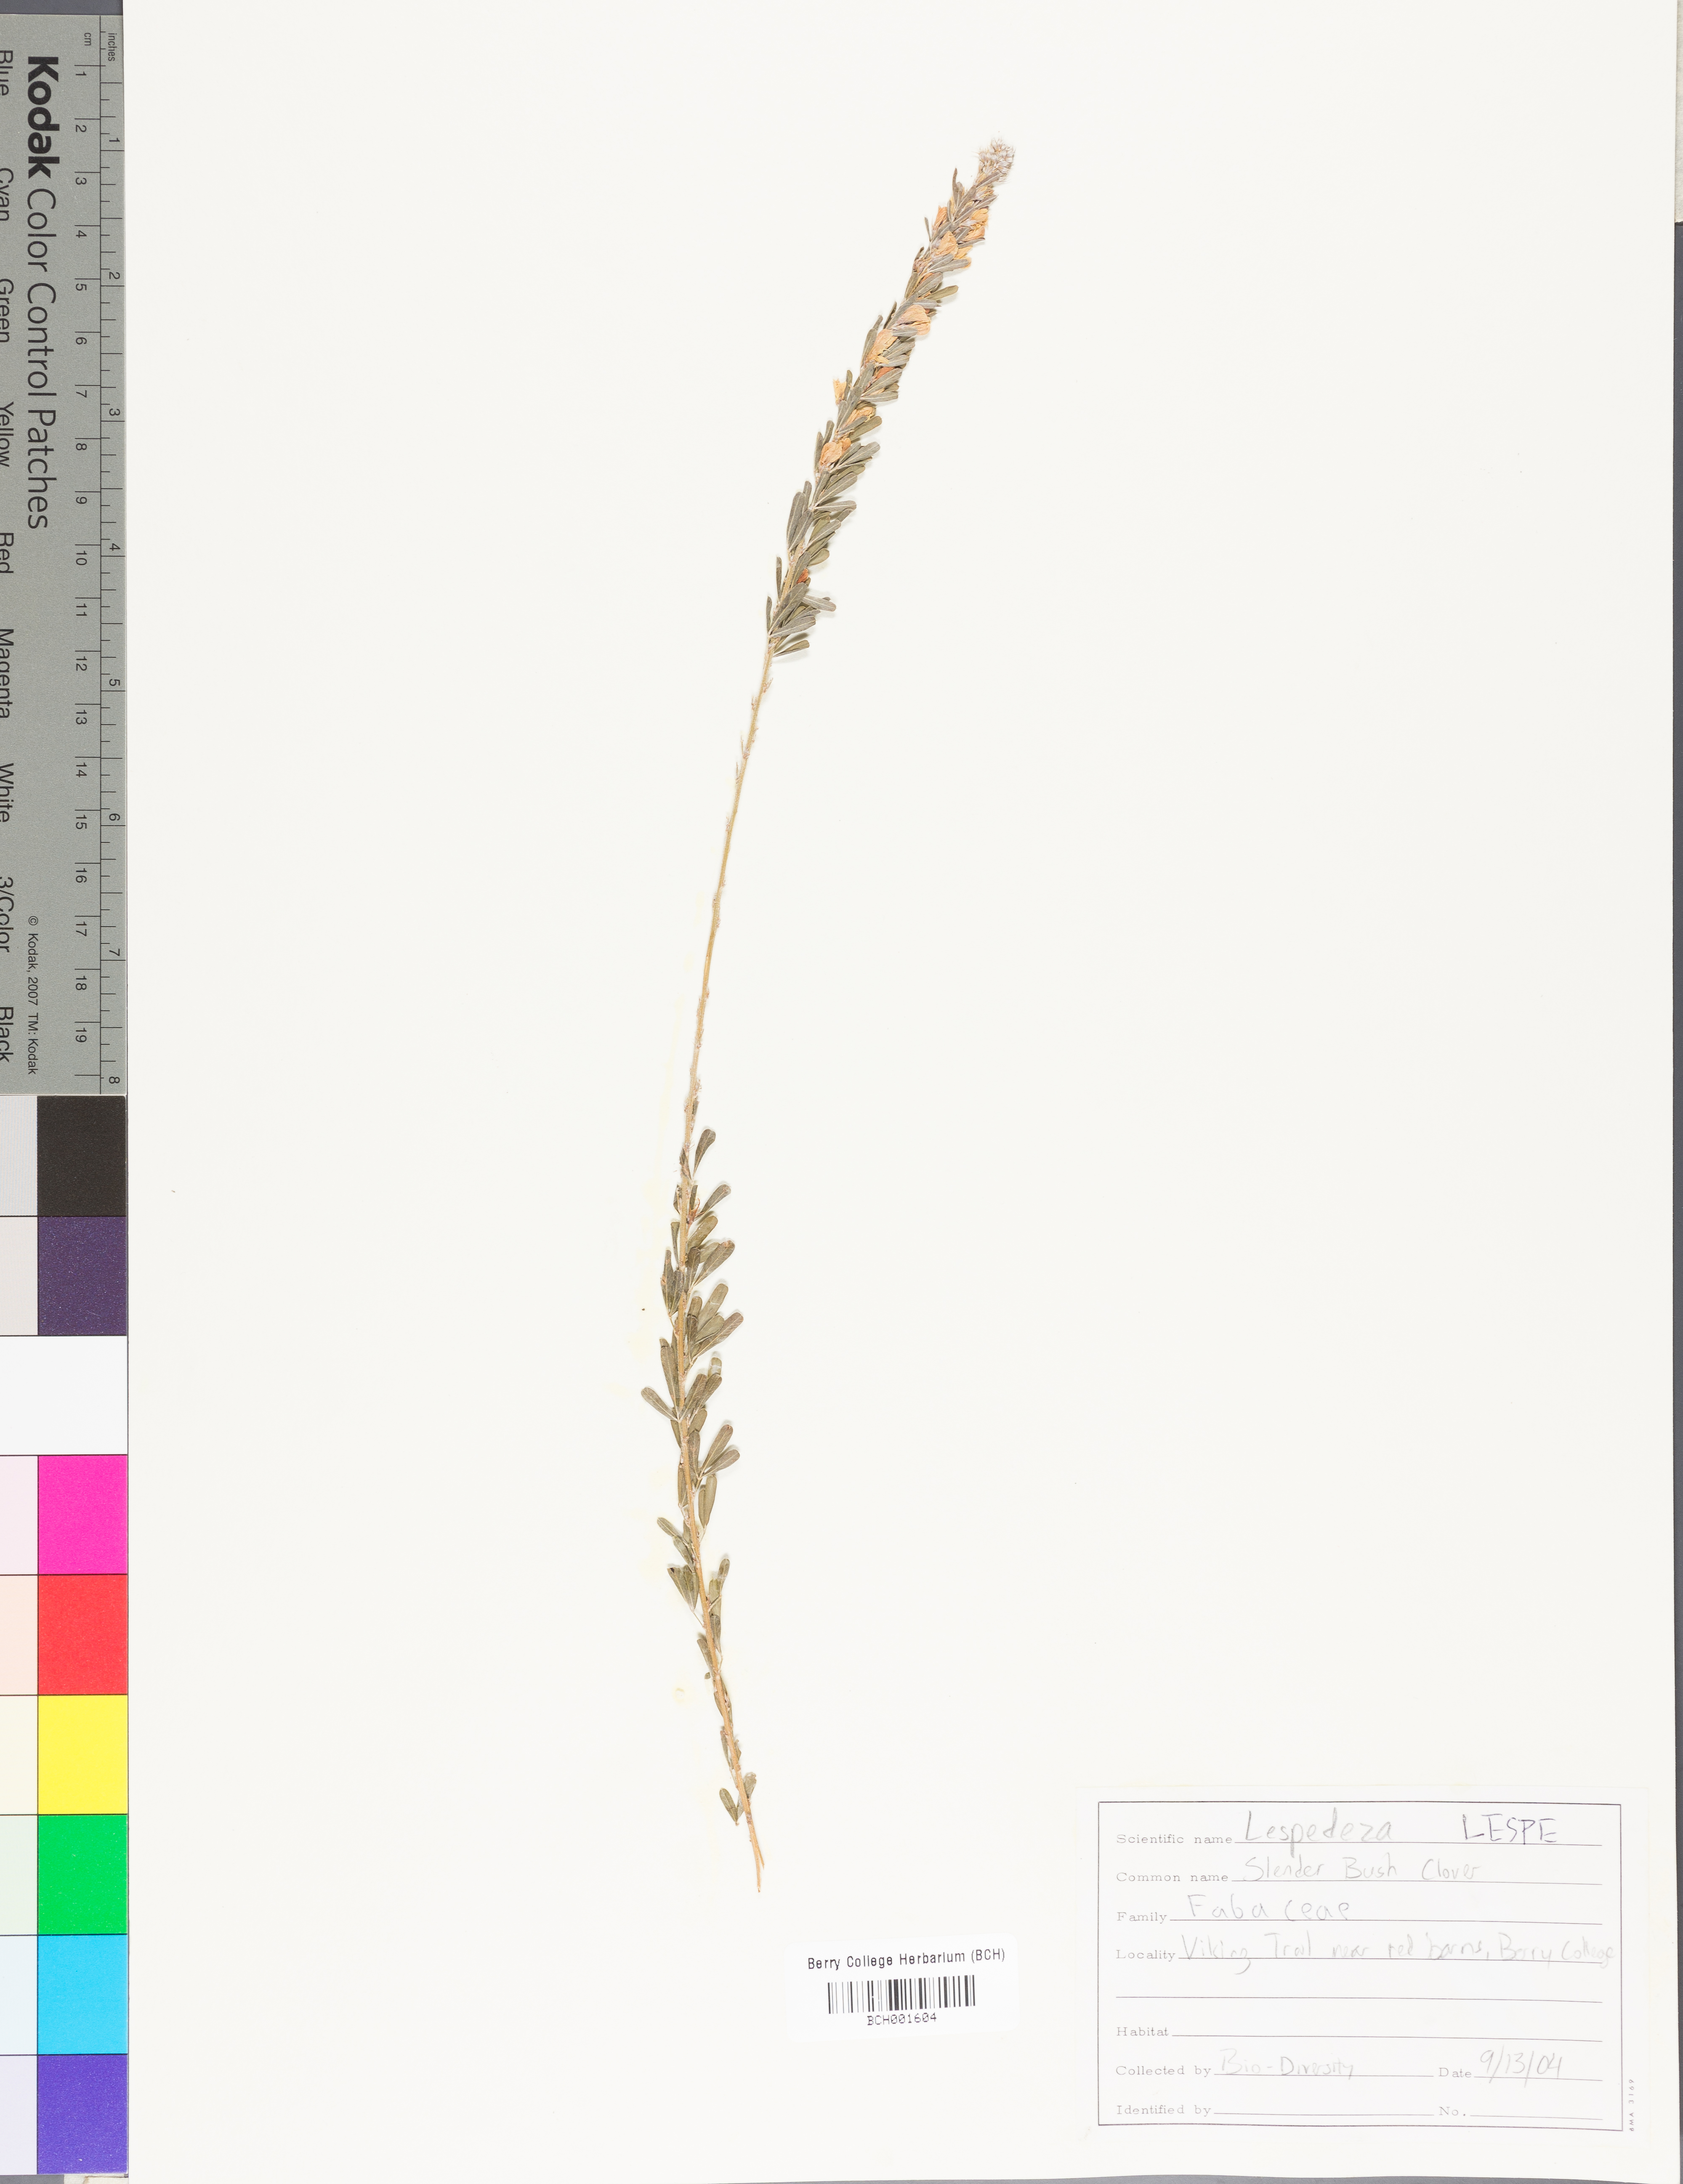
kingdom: Plantae
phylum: Tracheophyta
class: Magnoliopsida
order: Fabales
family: Fabaceae
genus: Lespedeza
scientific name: Lespedeza
